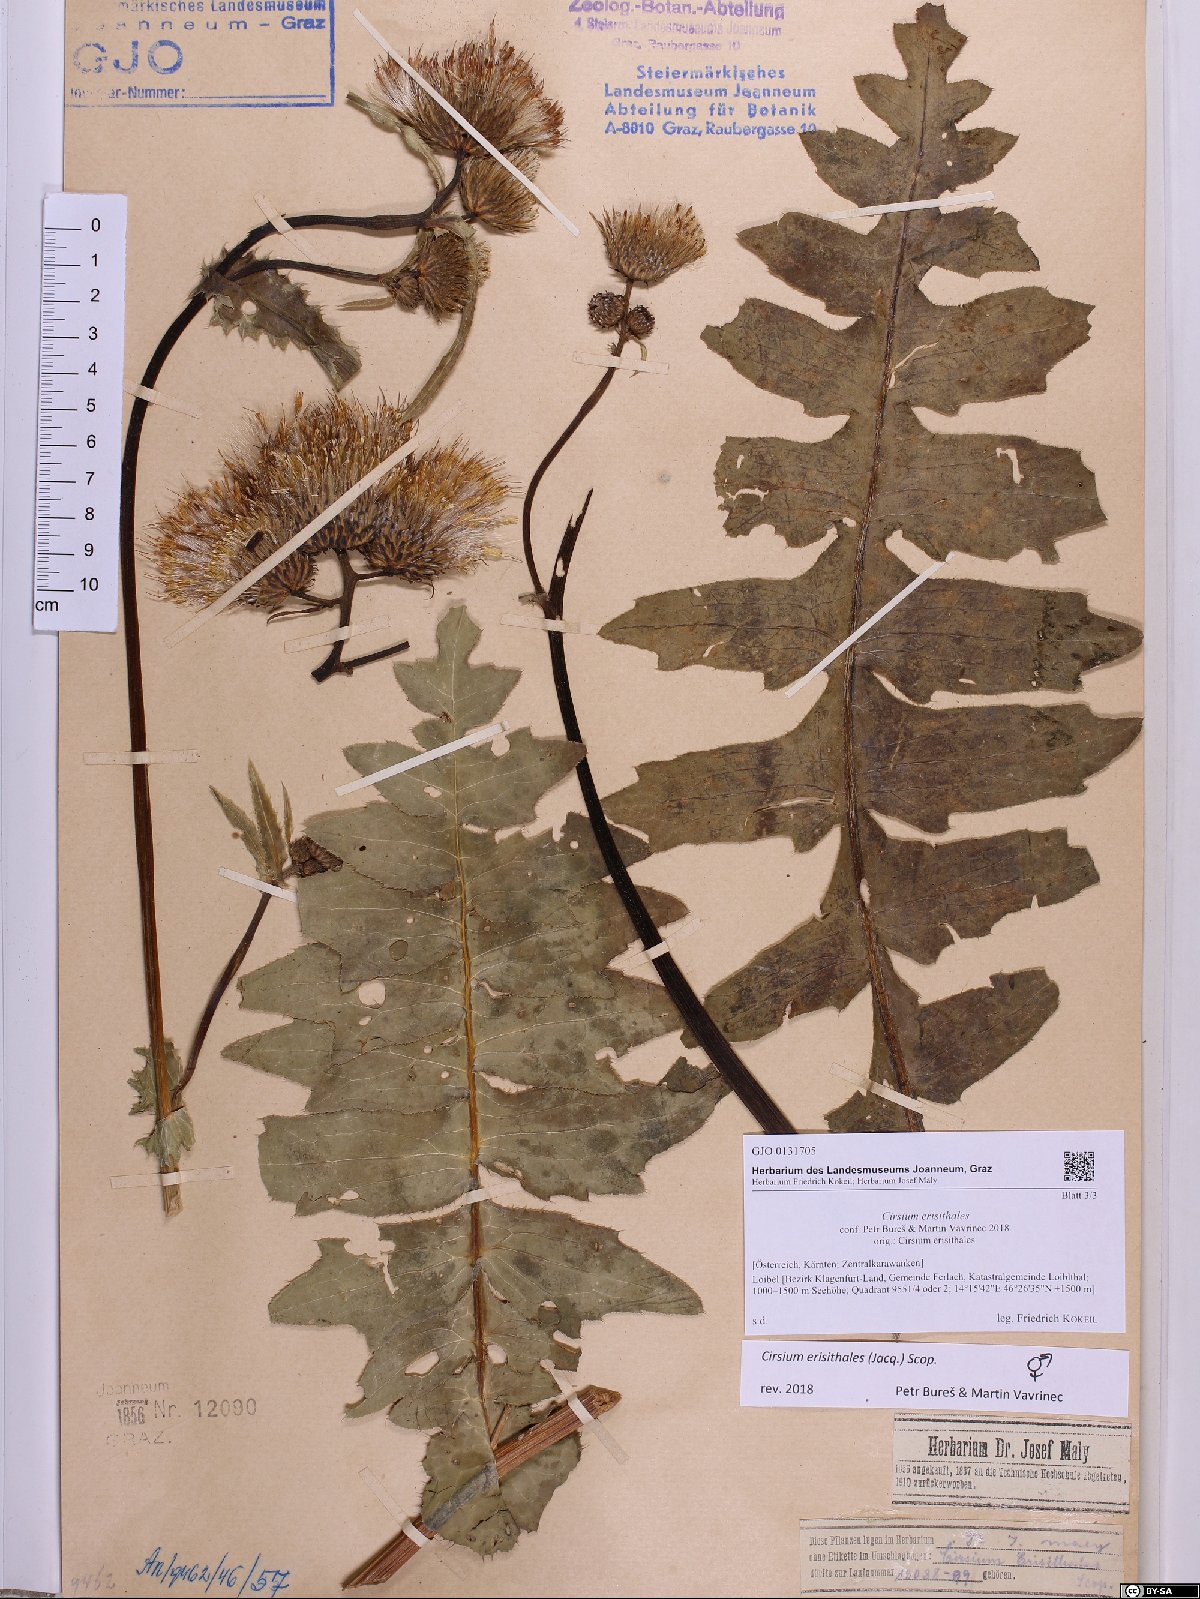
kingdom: Plantae
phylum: Tracheophyta
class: Magnoliopsida
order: Asterales
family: Asteraceae
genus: Cirsium
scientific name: Cirsium erisithales
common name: Yellow thistle
